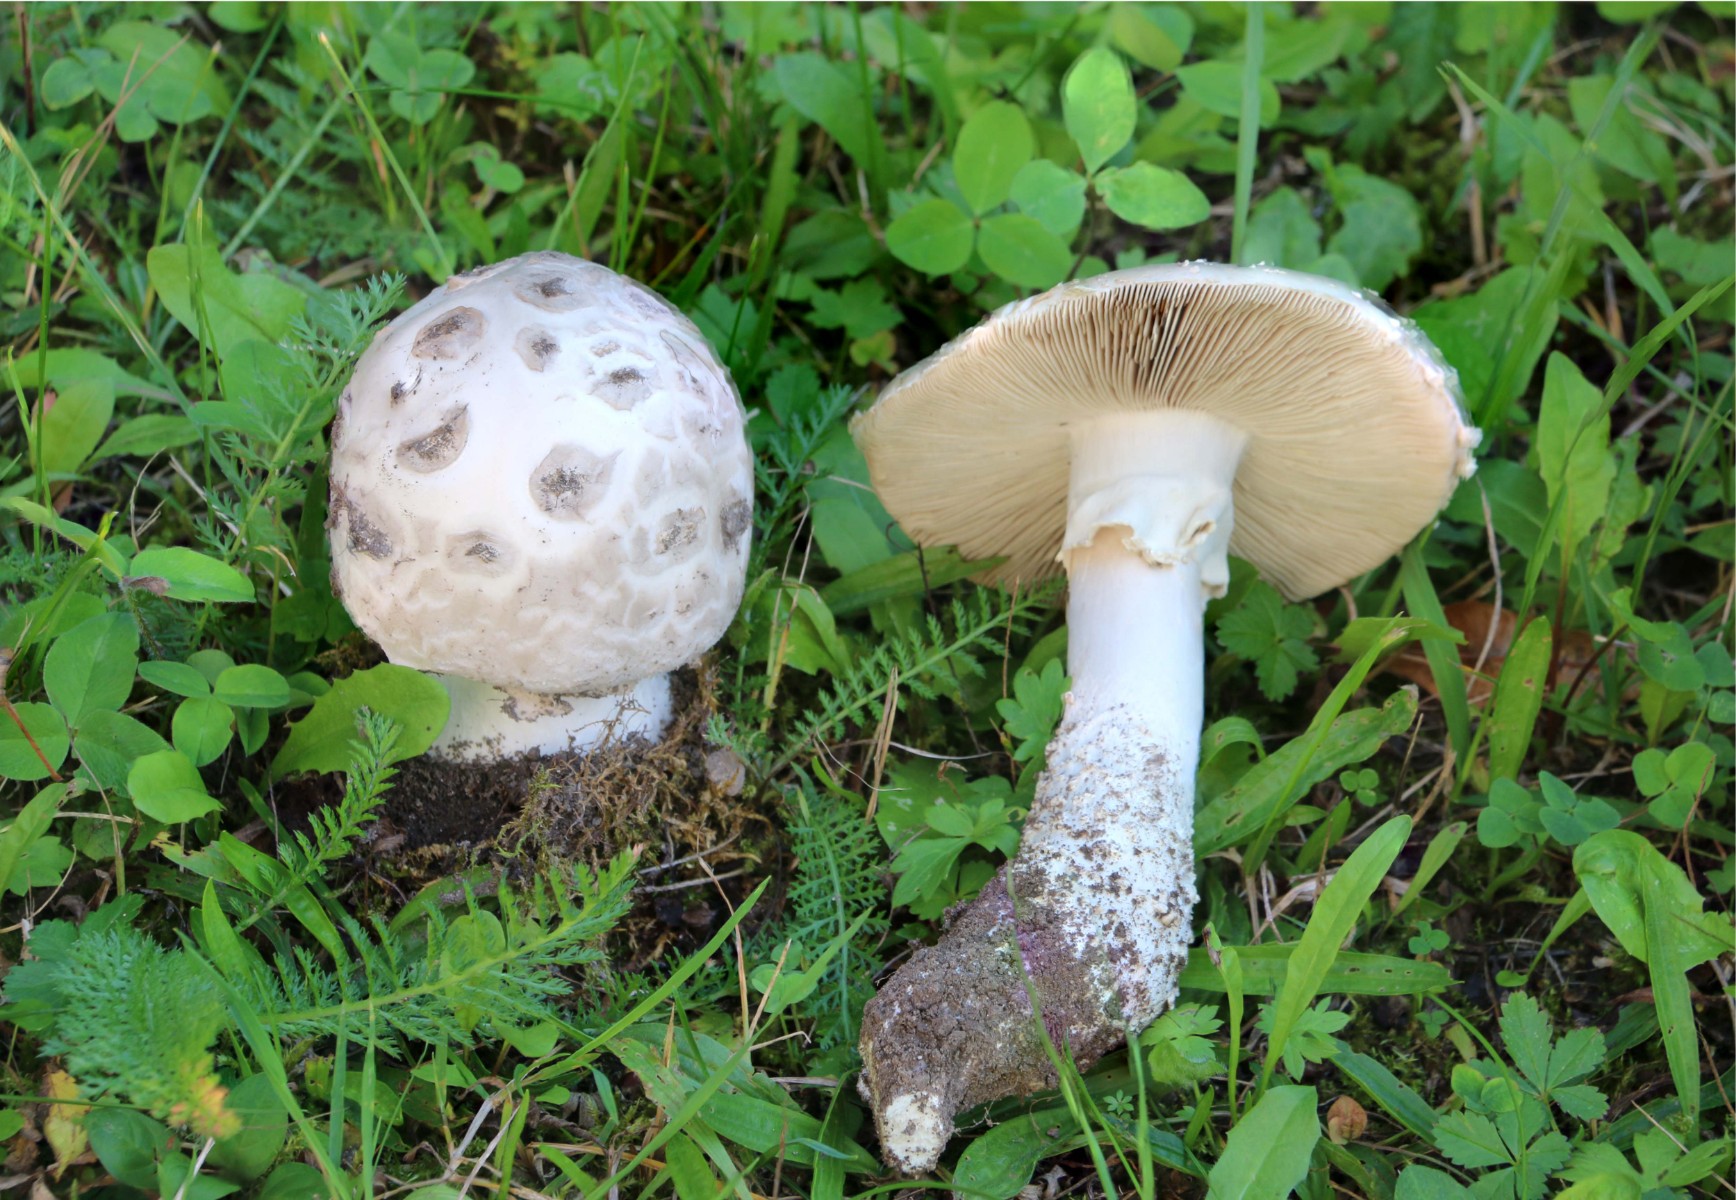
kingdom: Fungi
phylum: Basidiomycota
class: Agaricomycetes
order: Agaricales
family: Amanitaceae
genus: Amanita
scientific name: Amanita
